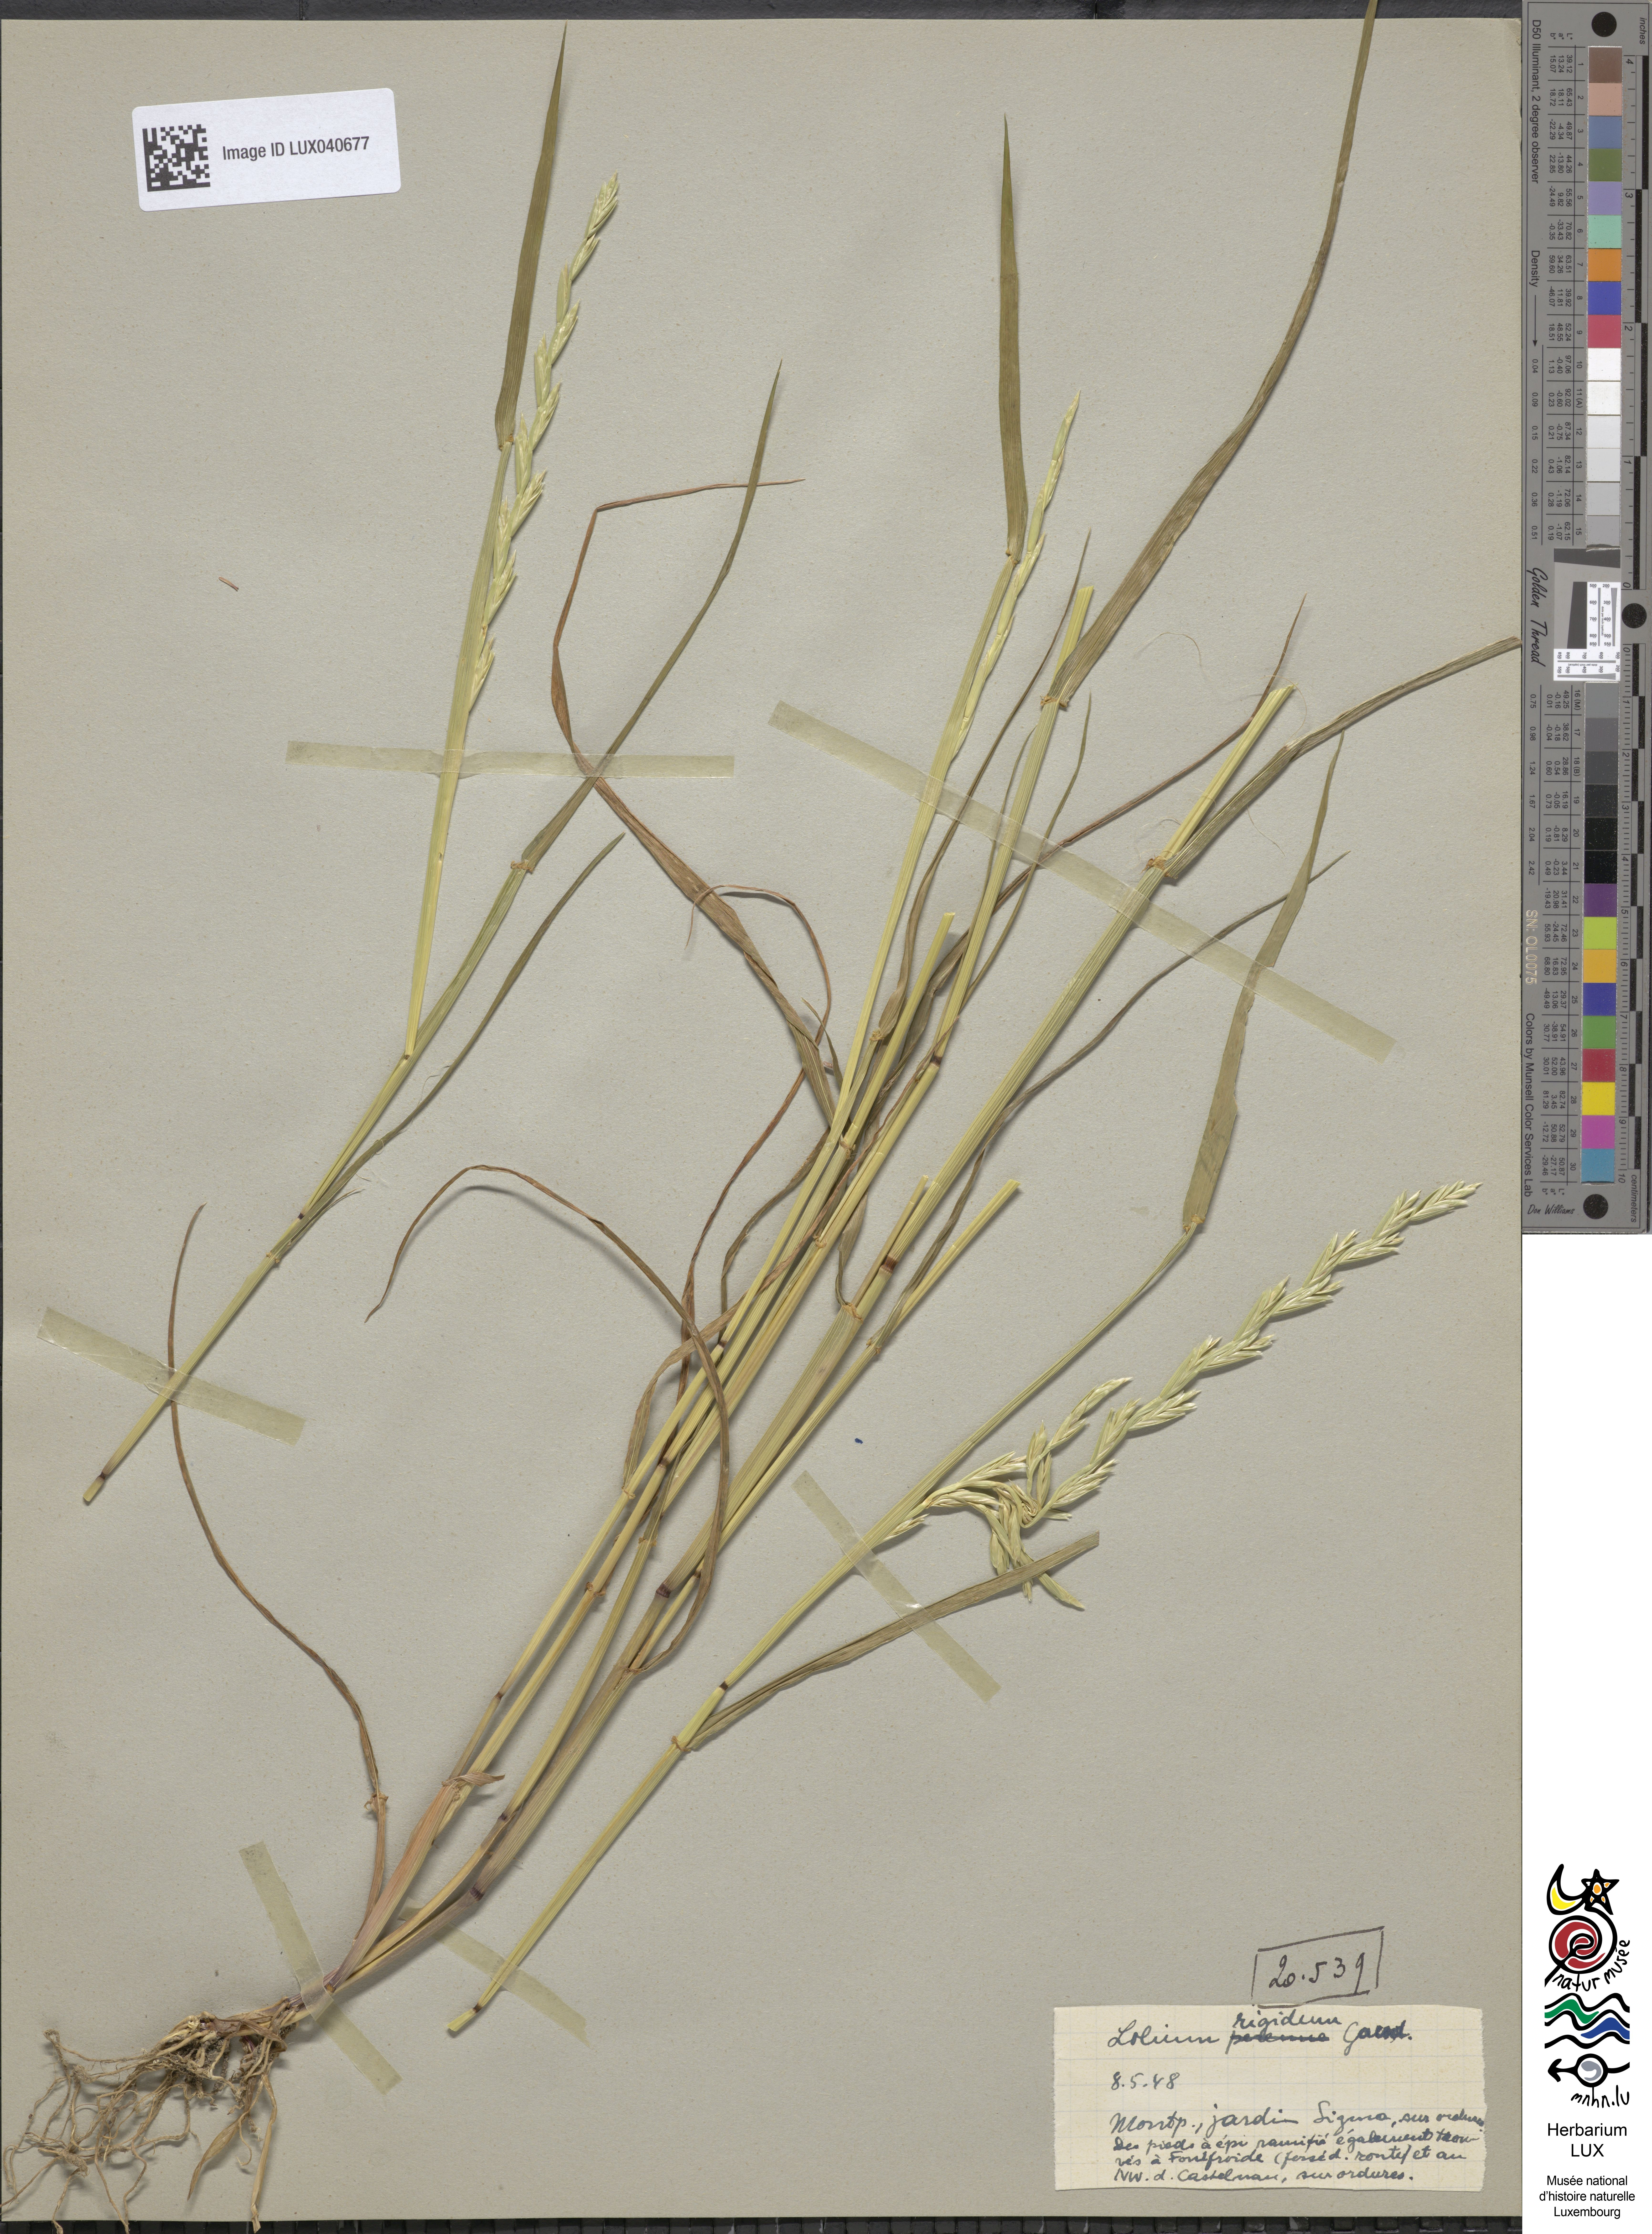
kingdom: Plantae
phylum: Tracheophyta
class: Liliopsida
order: Poales
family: Poaceae
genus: Lolium
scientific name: Lolium rigidum
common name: Wimmera ryegrass
